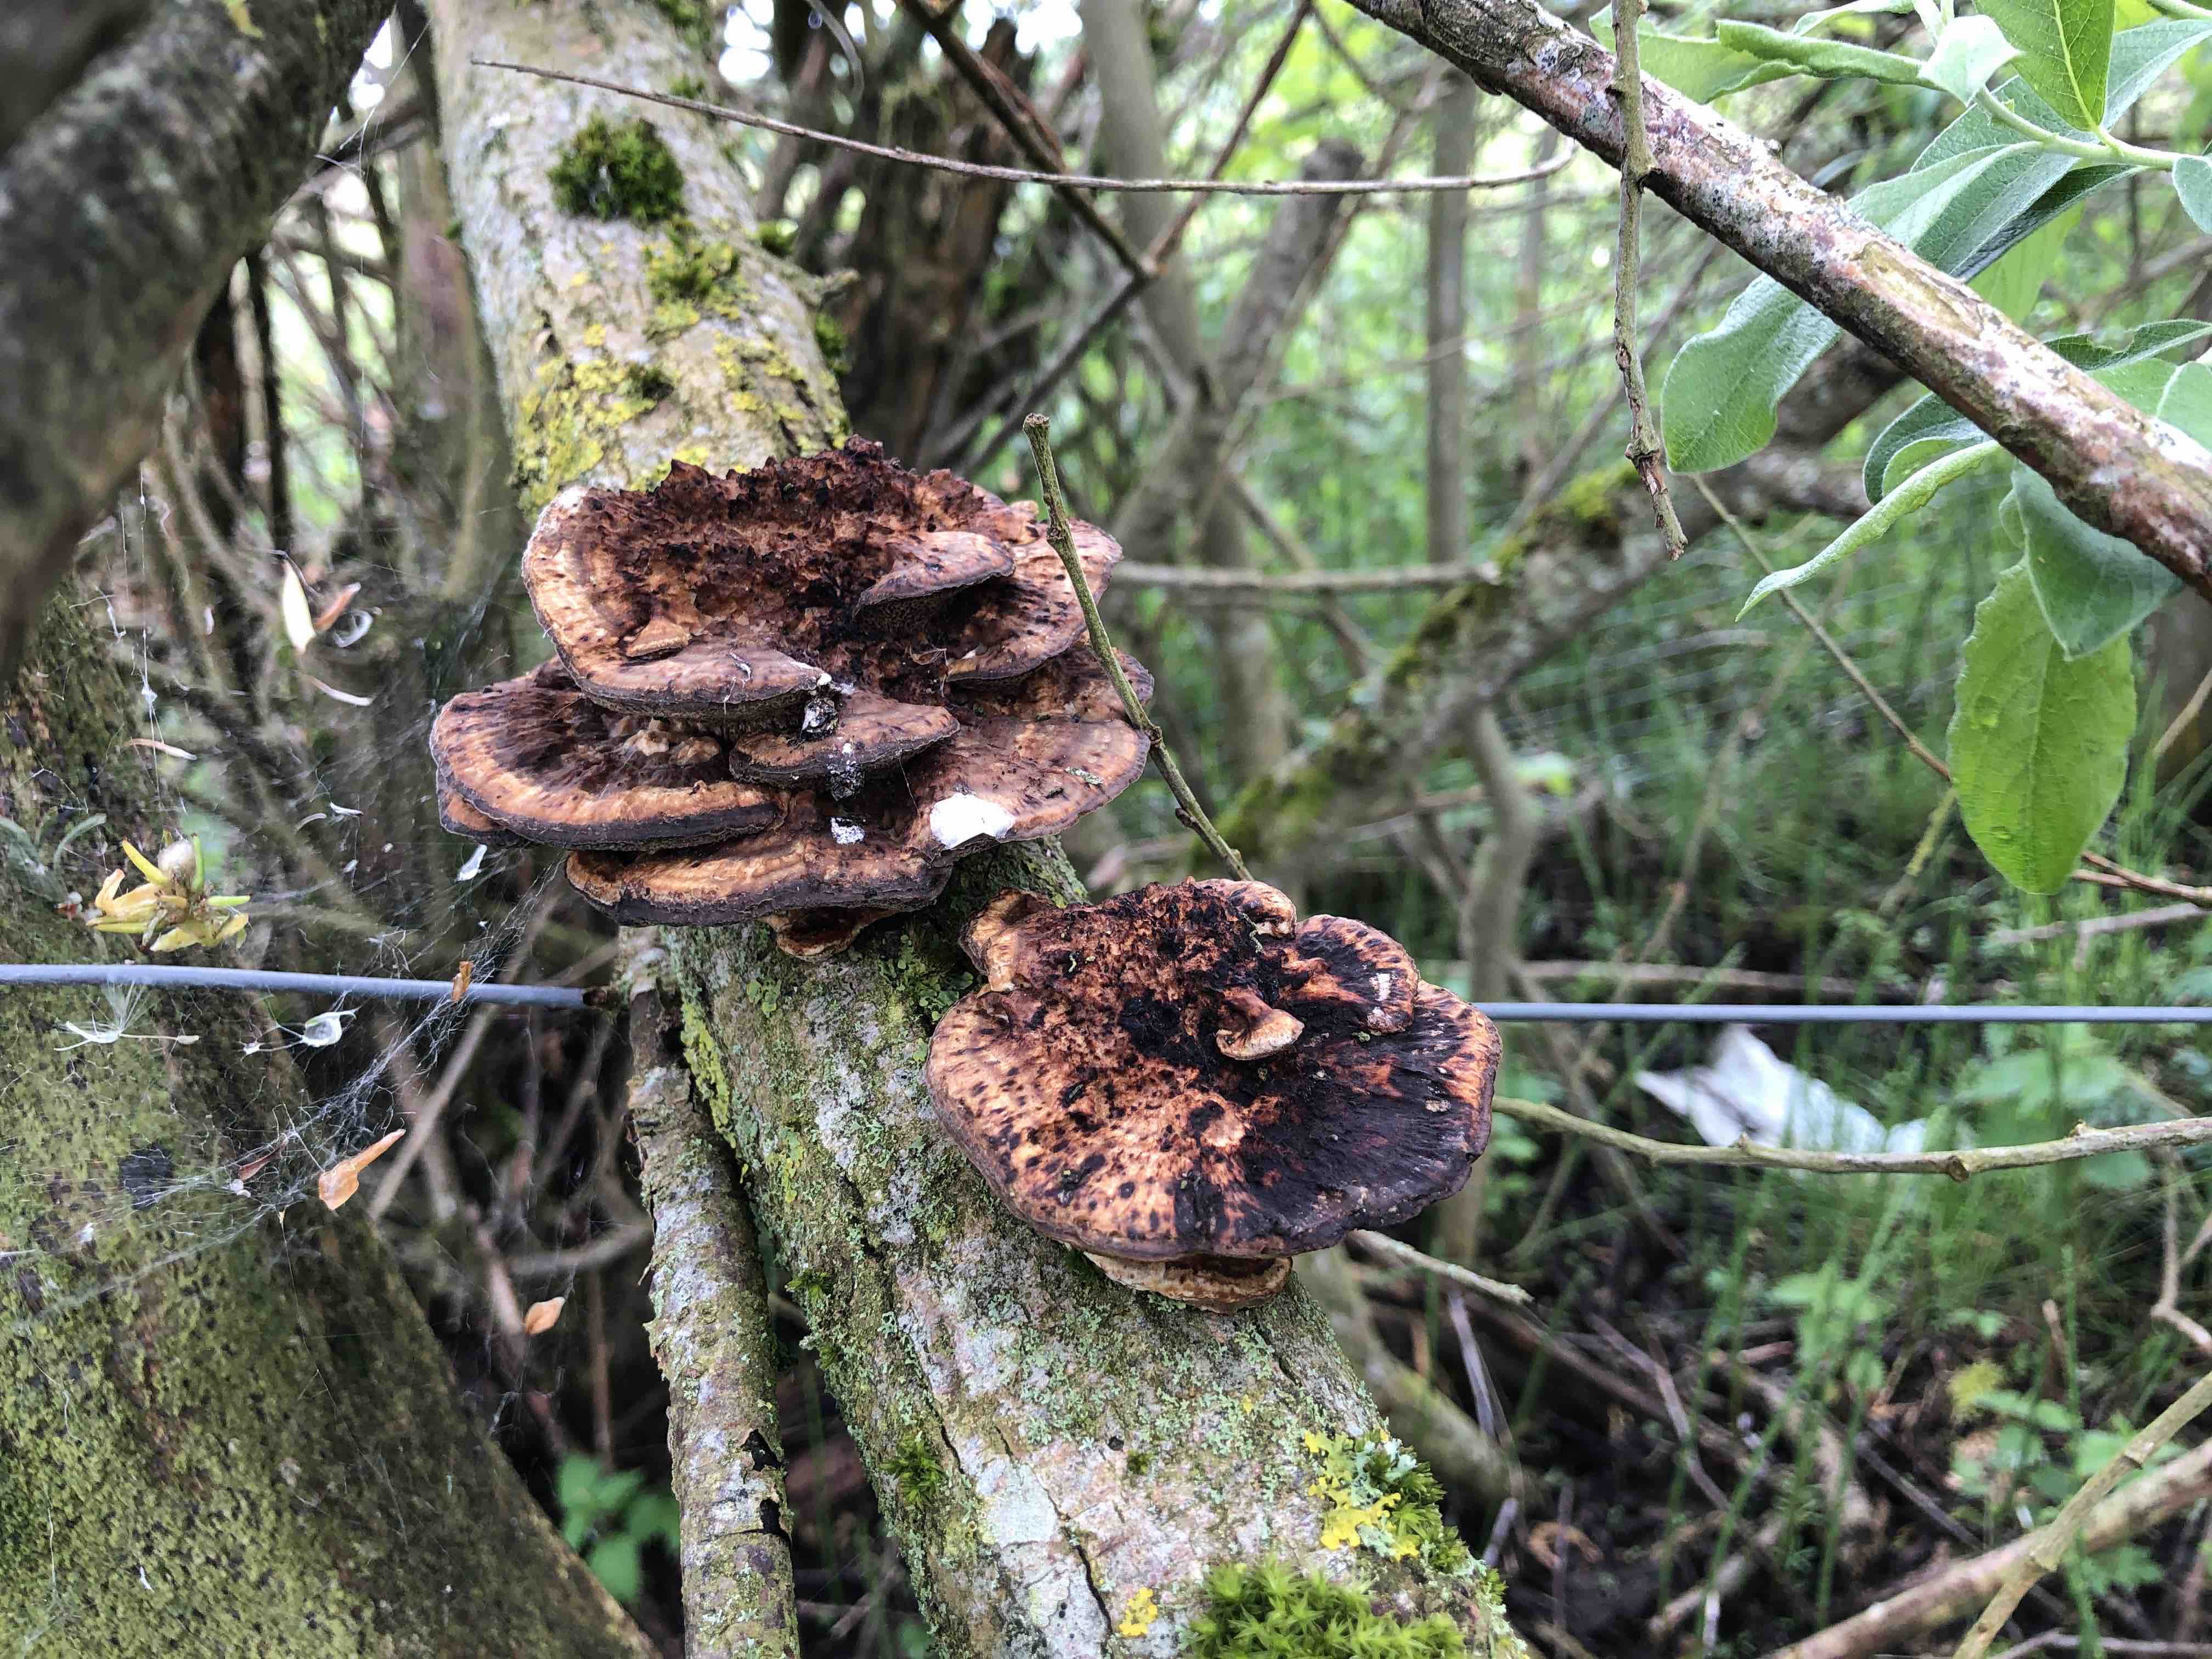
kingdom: Fungi
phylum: Basidiomycota
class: Agaricomycetes
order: Polyporales
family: Polyporaceae
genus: Daedaleopsis
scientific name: Daedaleopsis confragosa
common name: rødmende læderporesvamp
